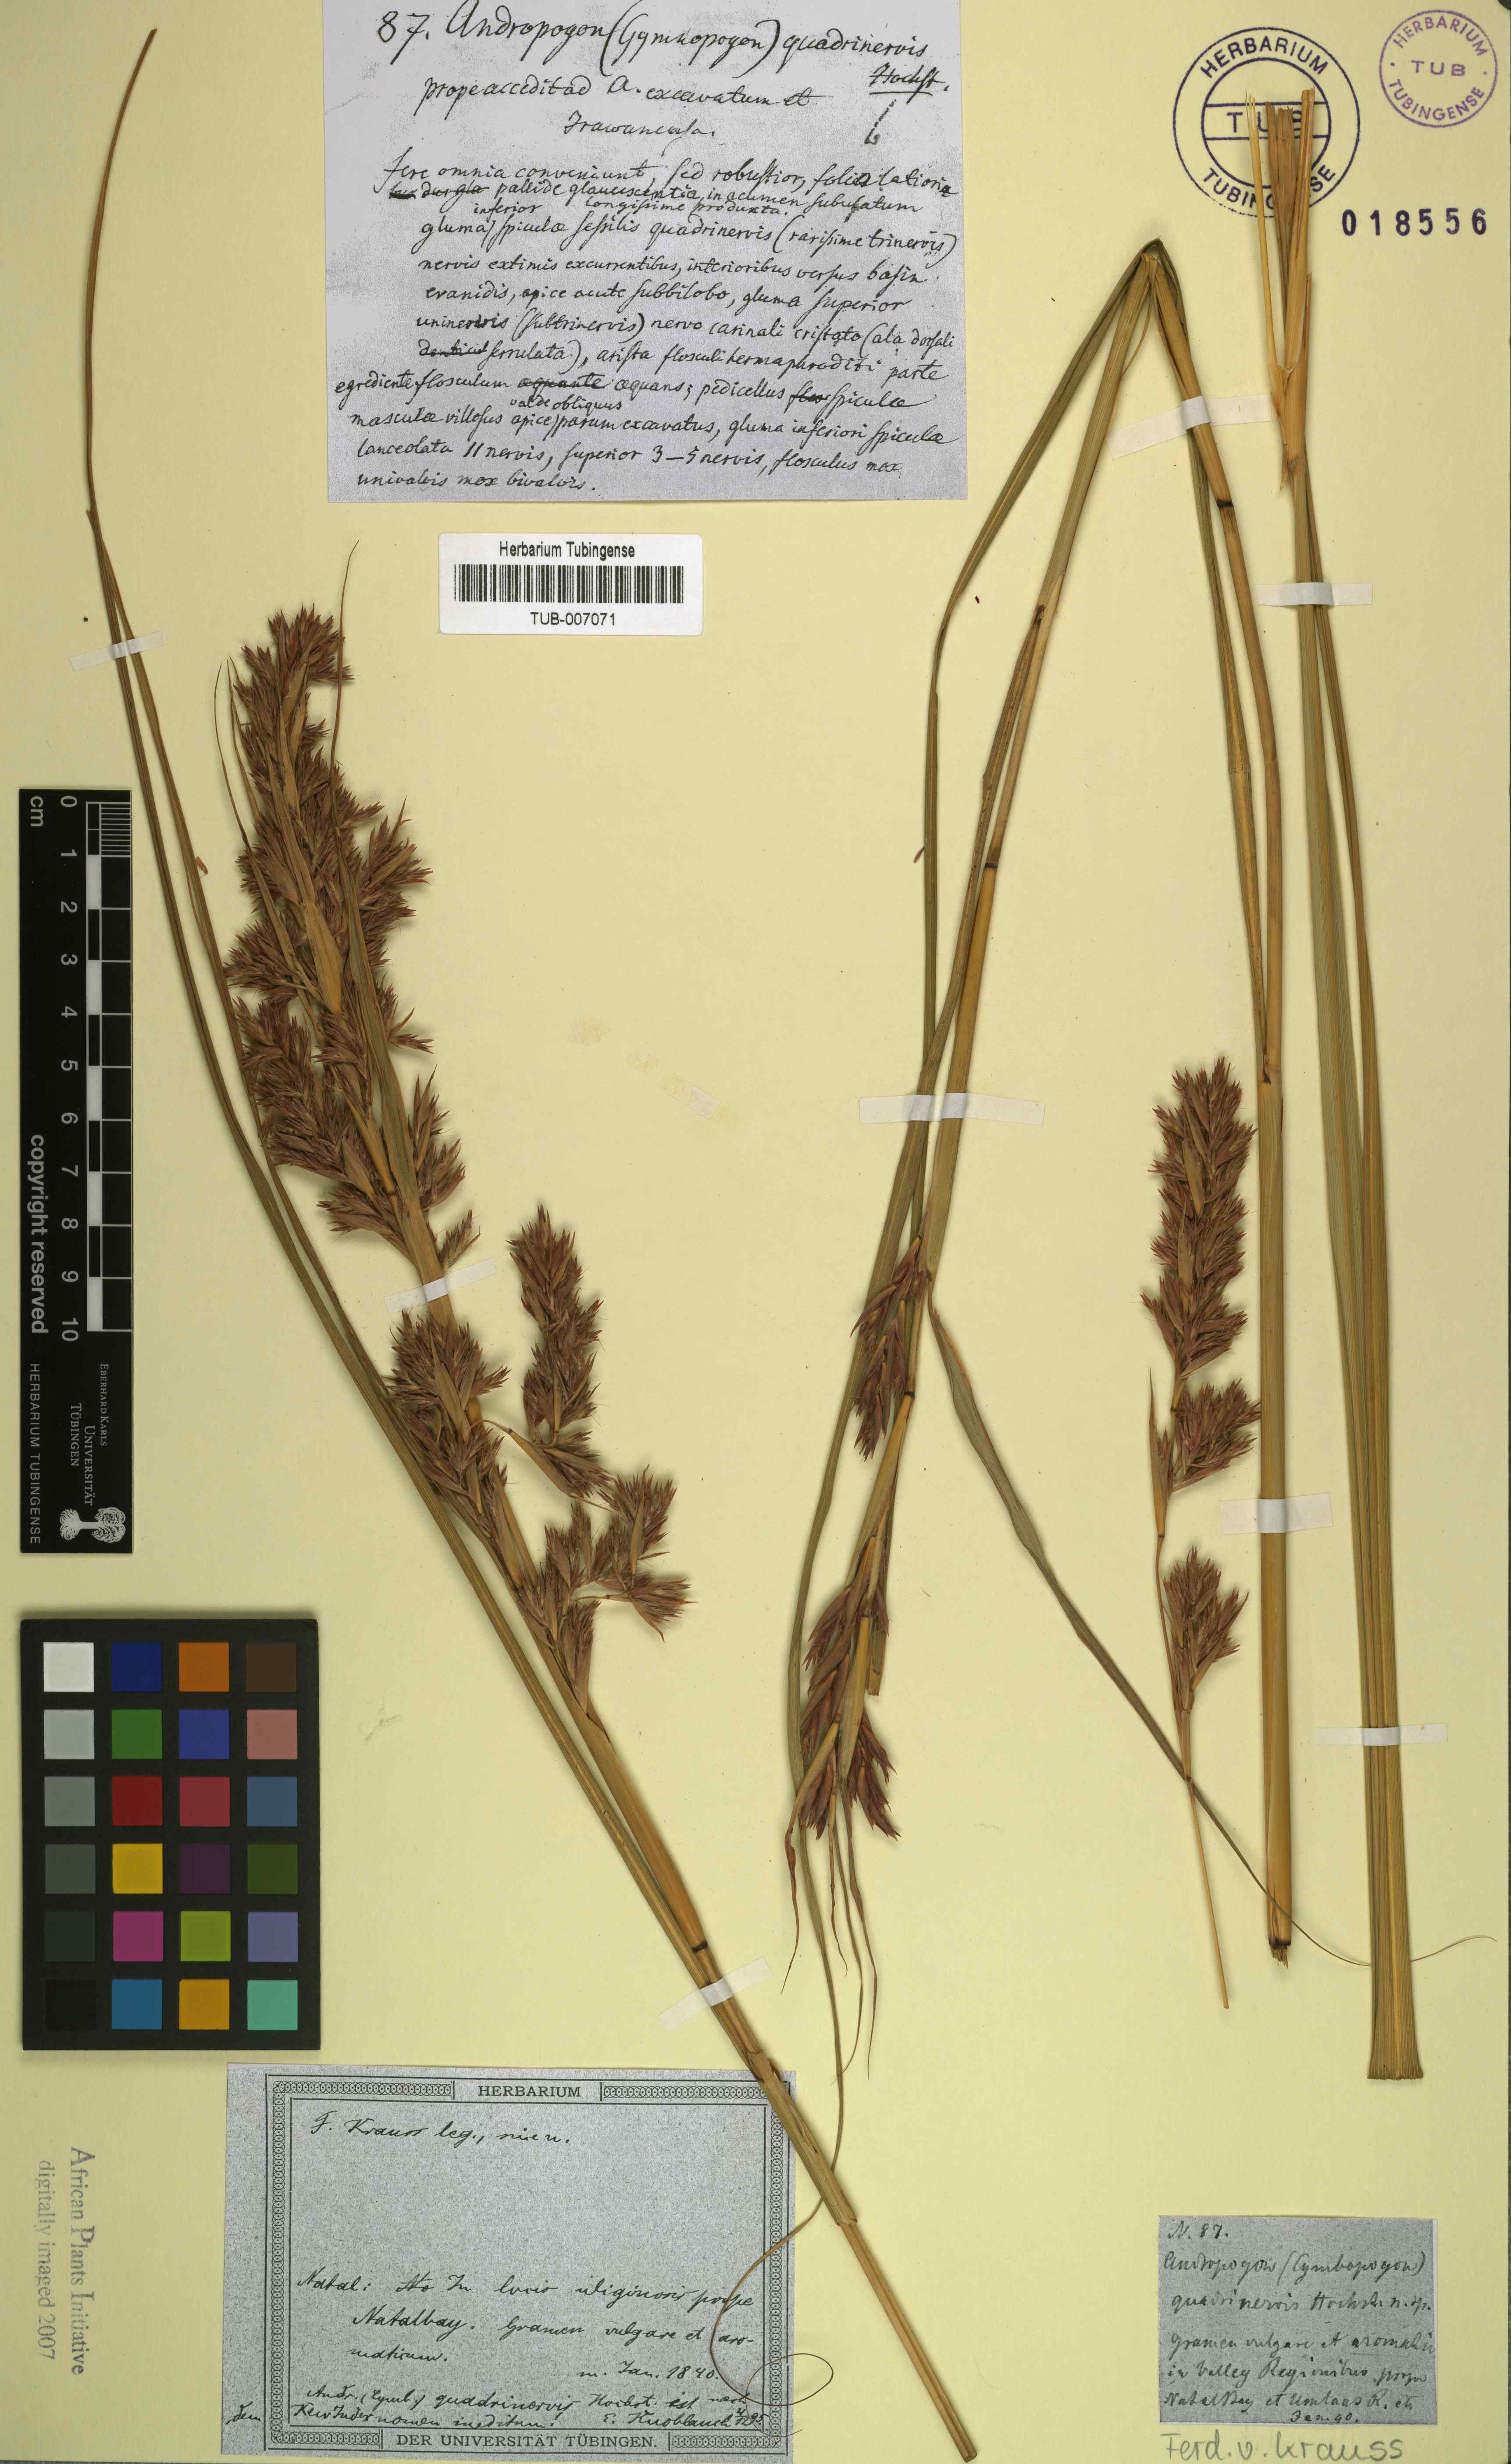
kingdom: Plantae
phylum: Tracheophyta
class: Liliopsida
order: Poales
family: Poaceae
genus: Cymbopogon
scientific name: Cymbopogon schoenanthus
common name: Geranium grass
